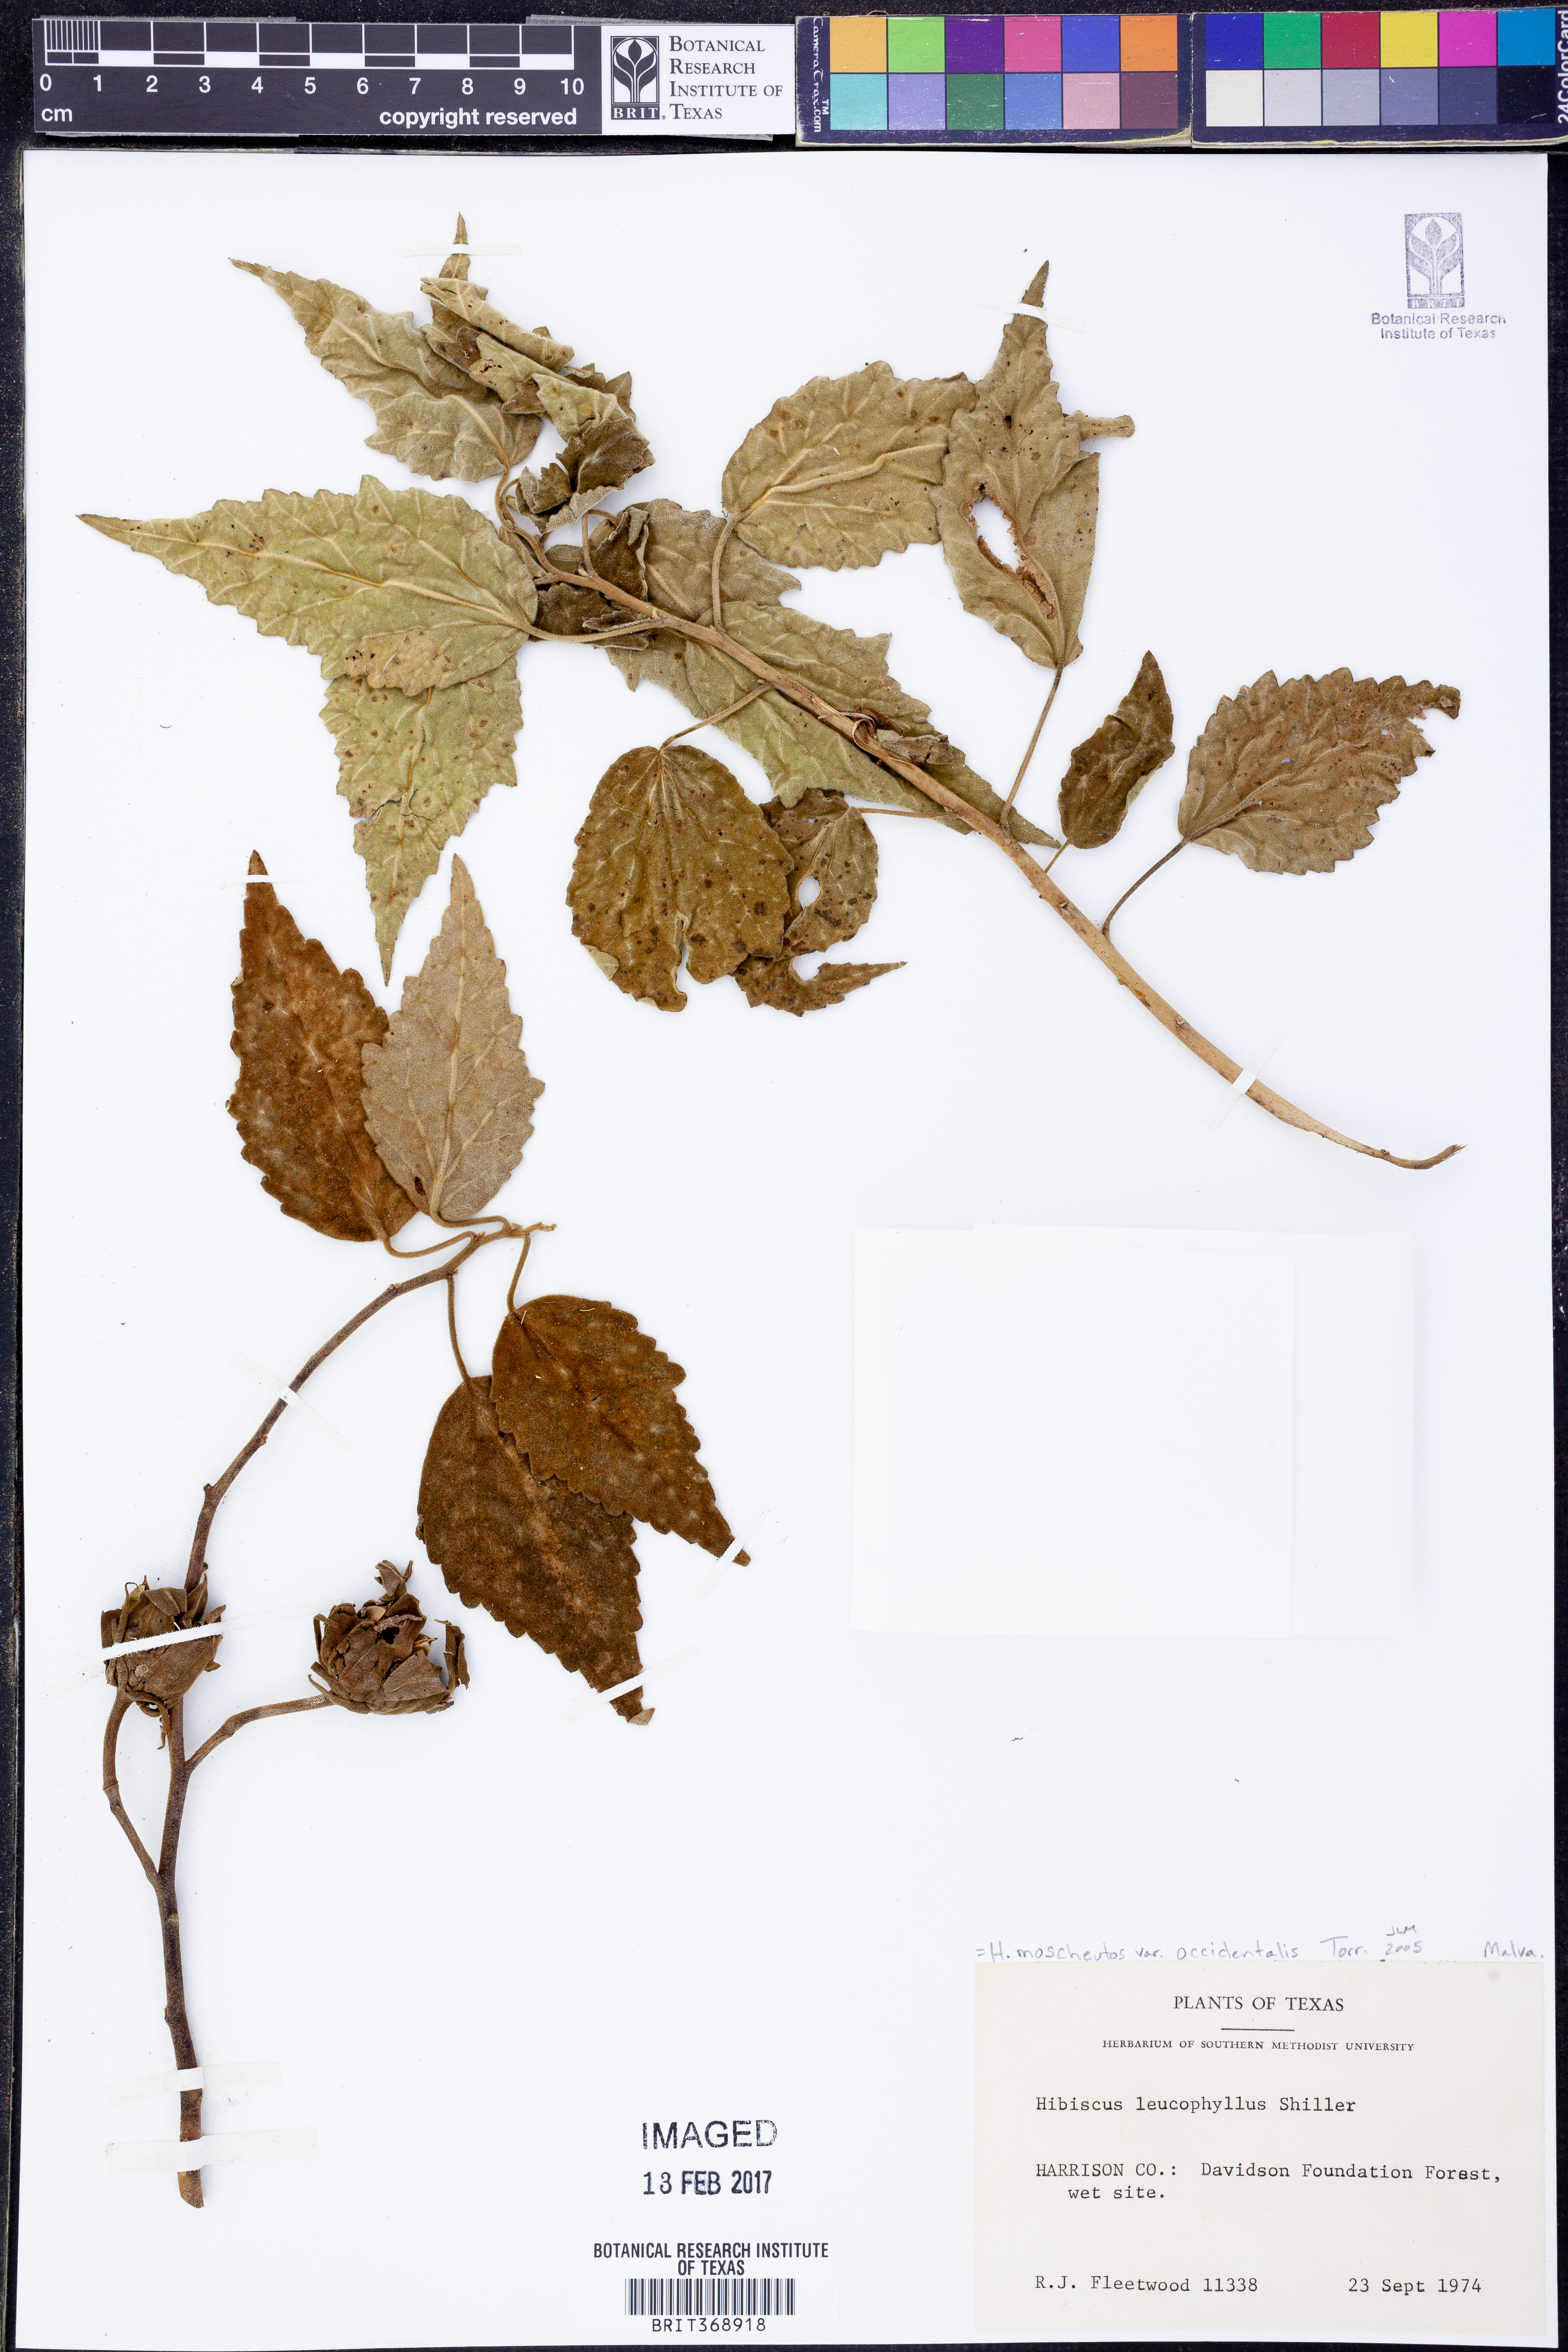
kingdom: Plantae
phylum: Tracheophyta
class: Magnoliopsida
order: Malvales
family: Malvaceae
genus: Hibiscus
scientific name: Hibiscus moscheutos
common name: Common rose-mallow
